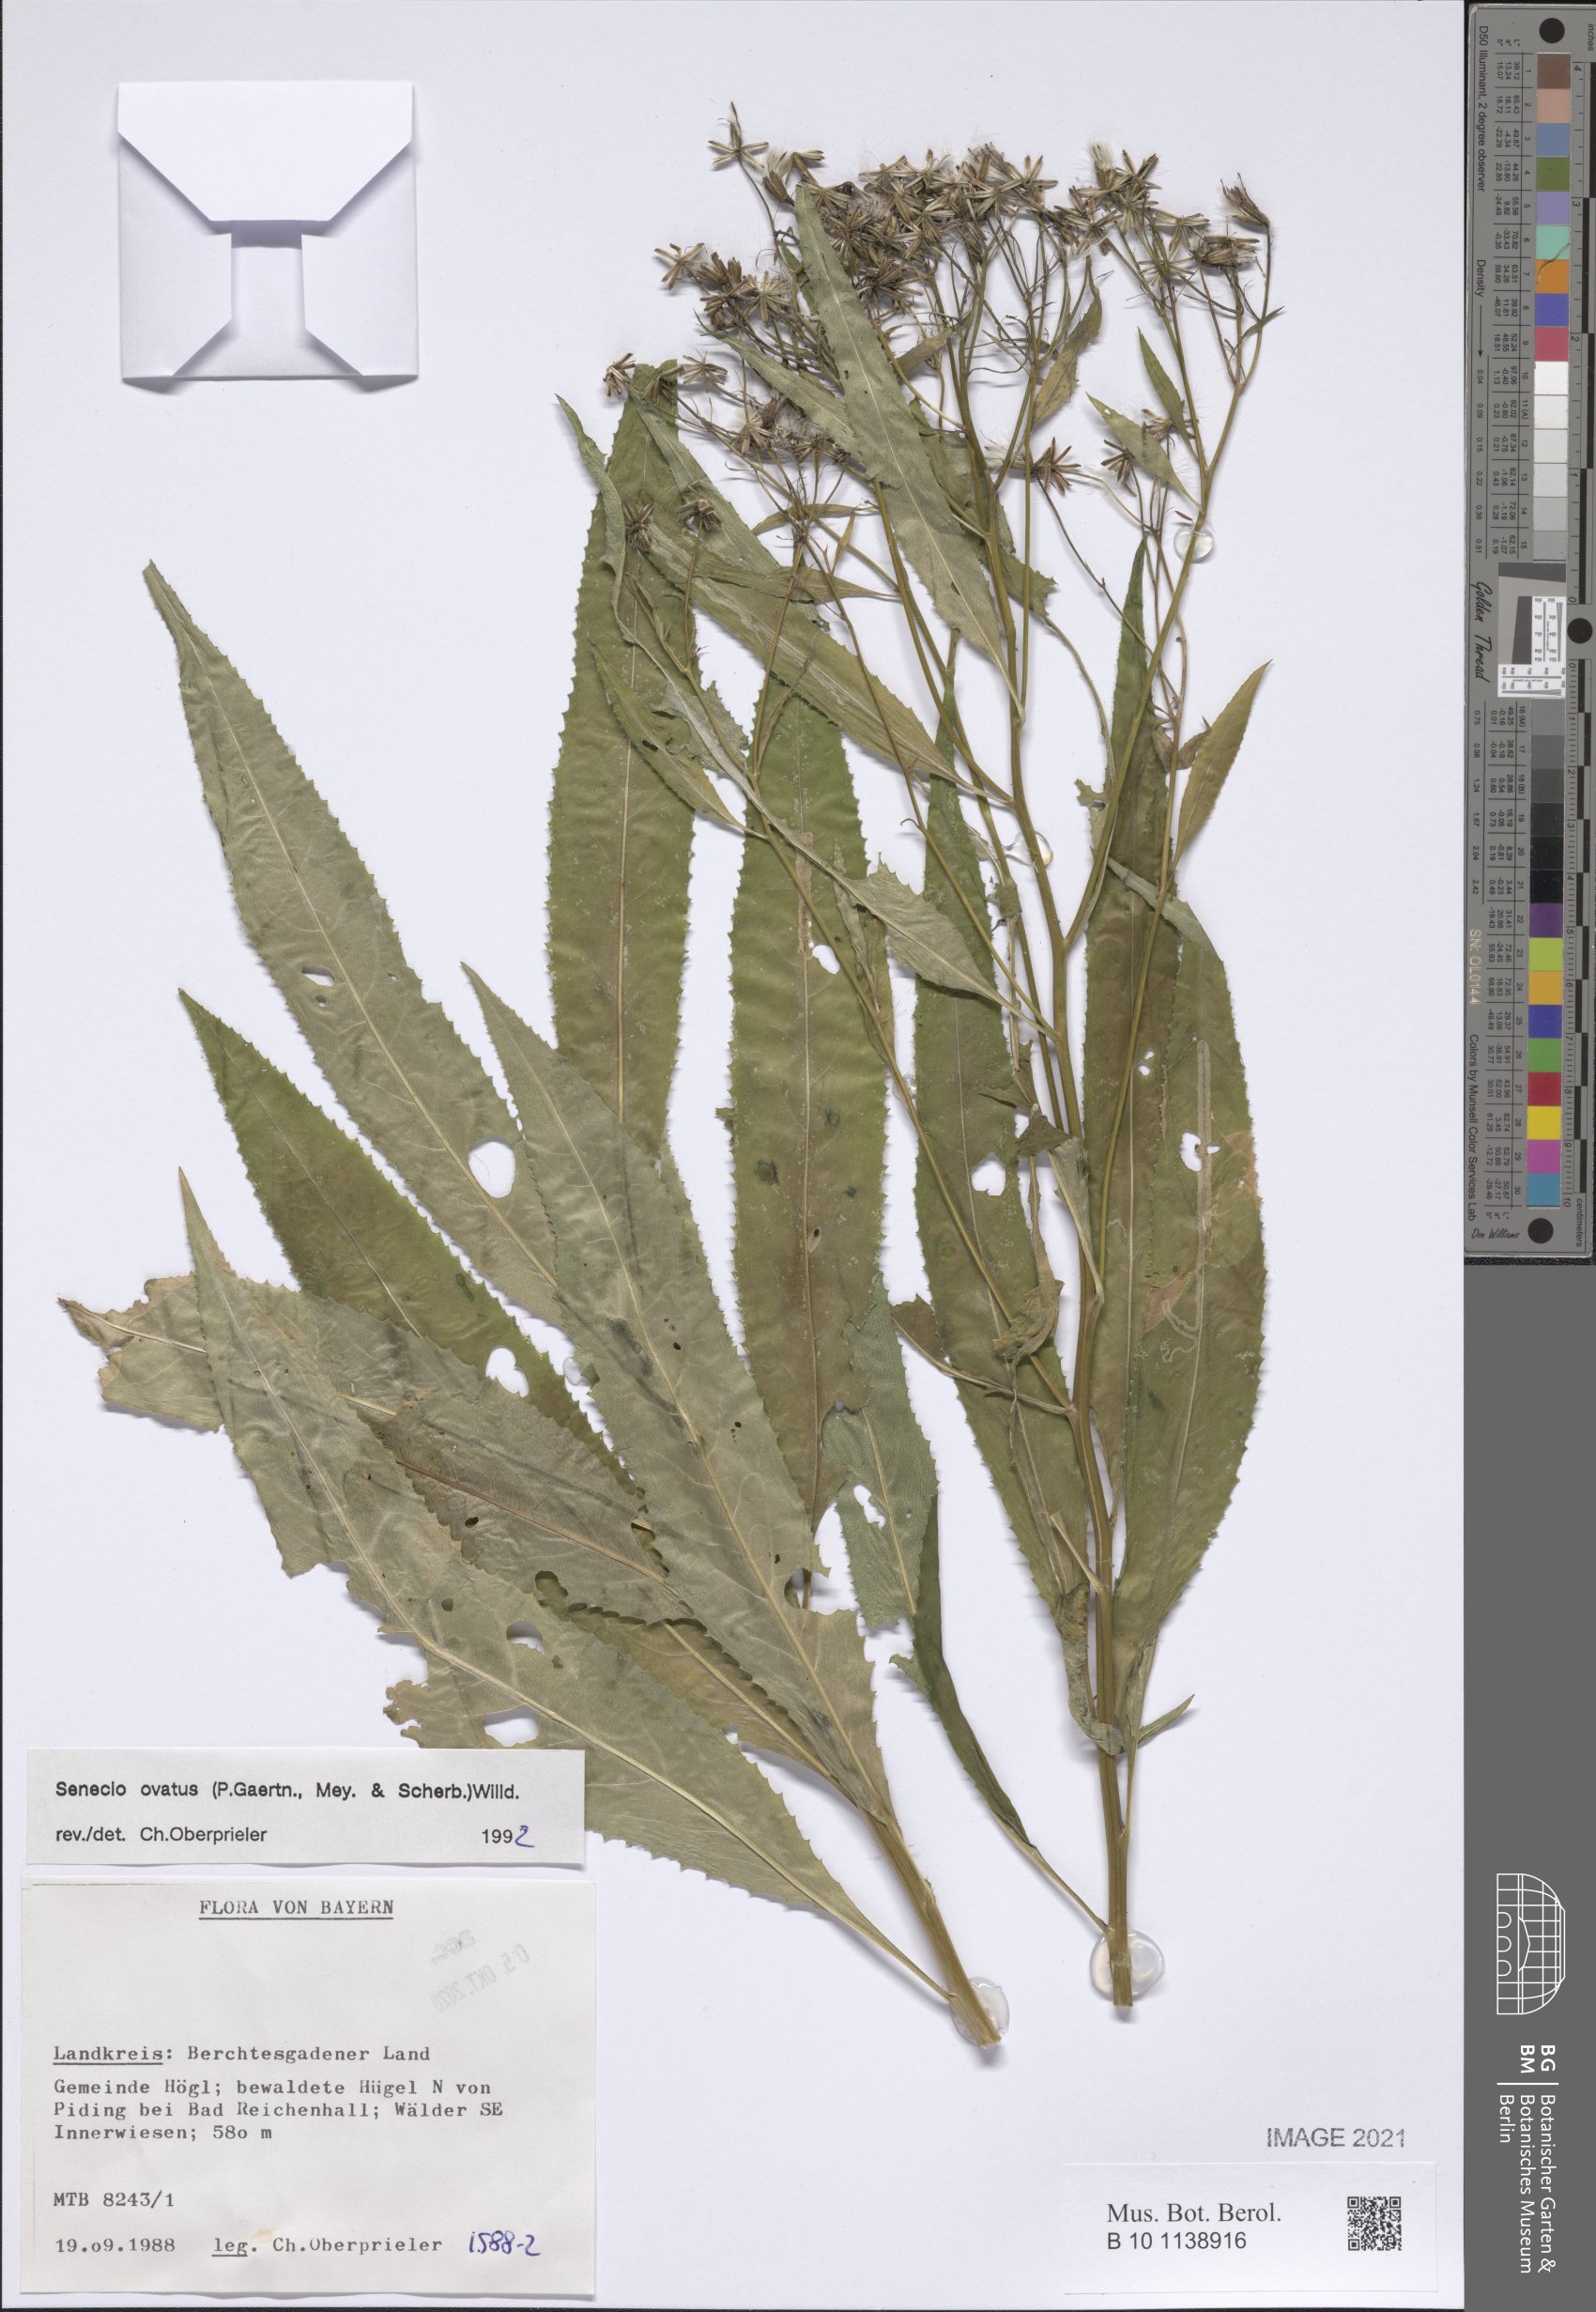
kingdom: Plantae
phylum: Tracheophyta
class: Magnoliopsida
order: Asterales
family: Asteraceae
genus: Senecio
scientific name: Senecio ovatus
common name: Wood ragwort
